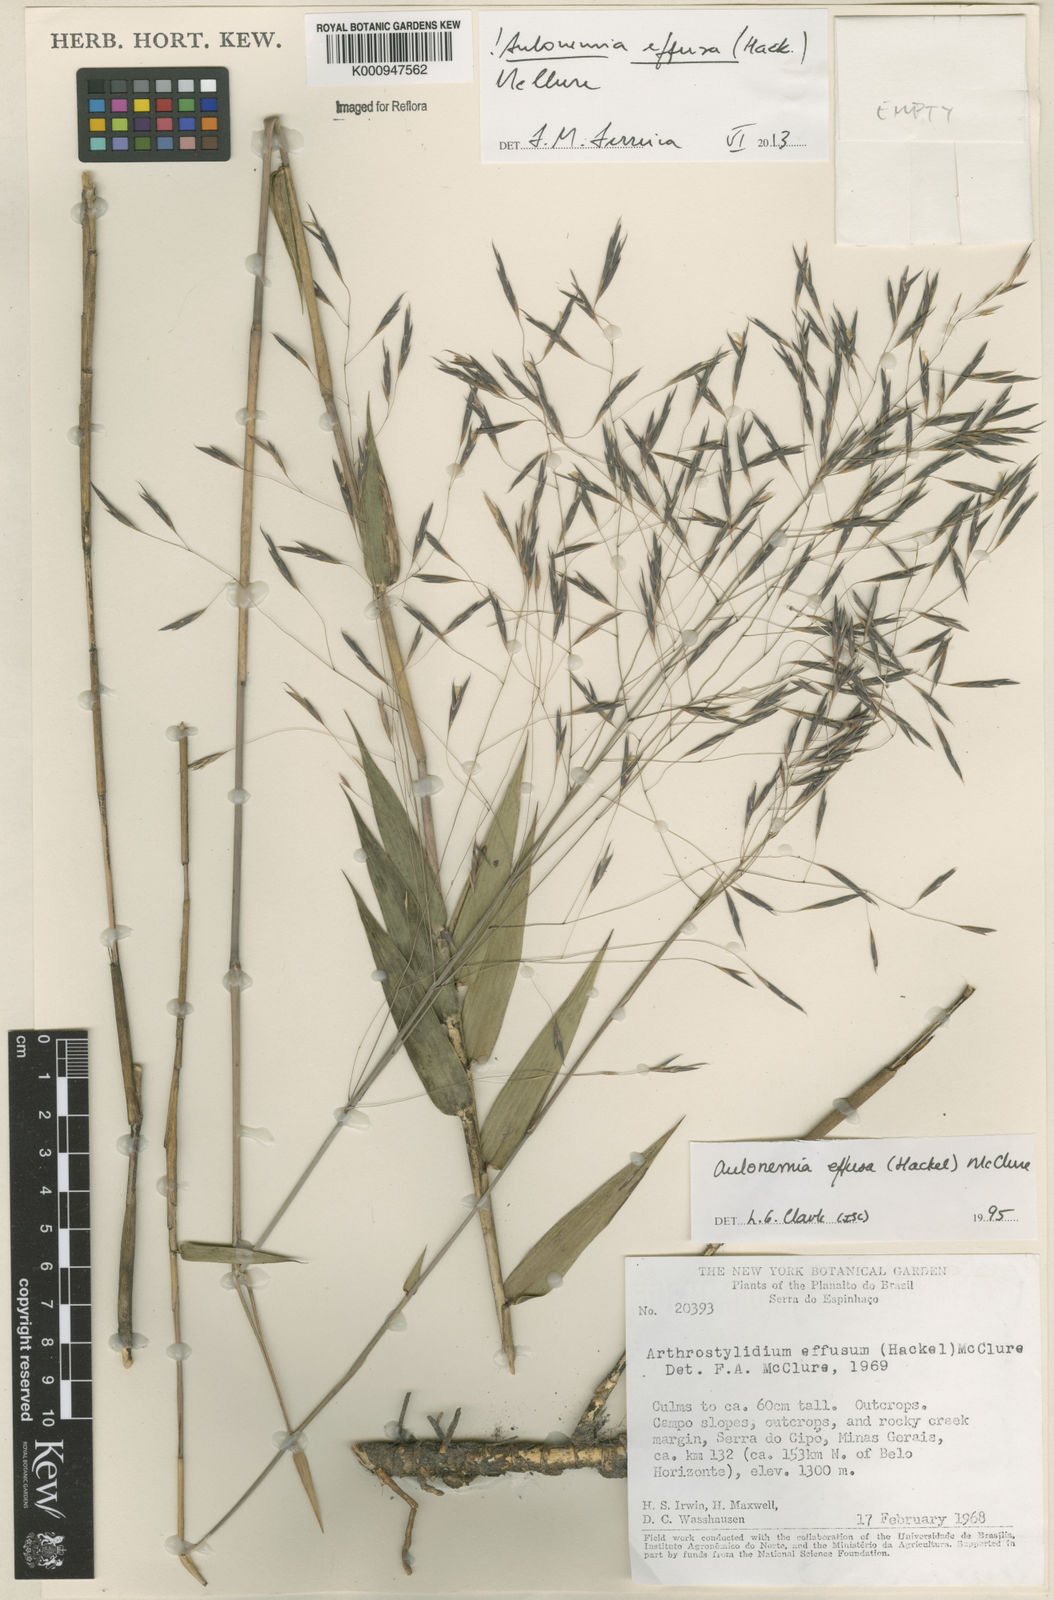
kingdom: Plantae
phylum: Tracheophyta
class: Liliopsida
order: Poales
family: Poaceae
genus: Aulonemia
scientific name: Aulonemia effusa
